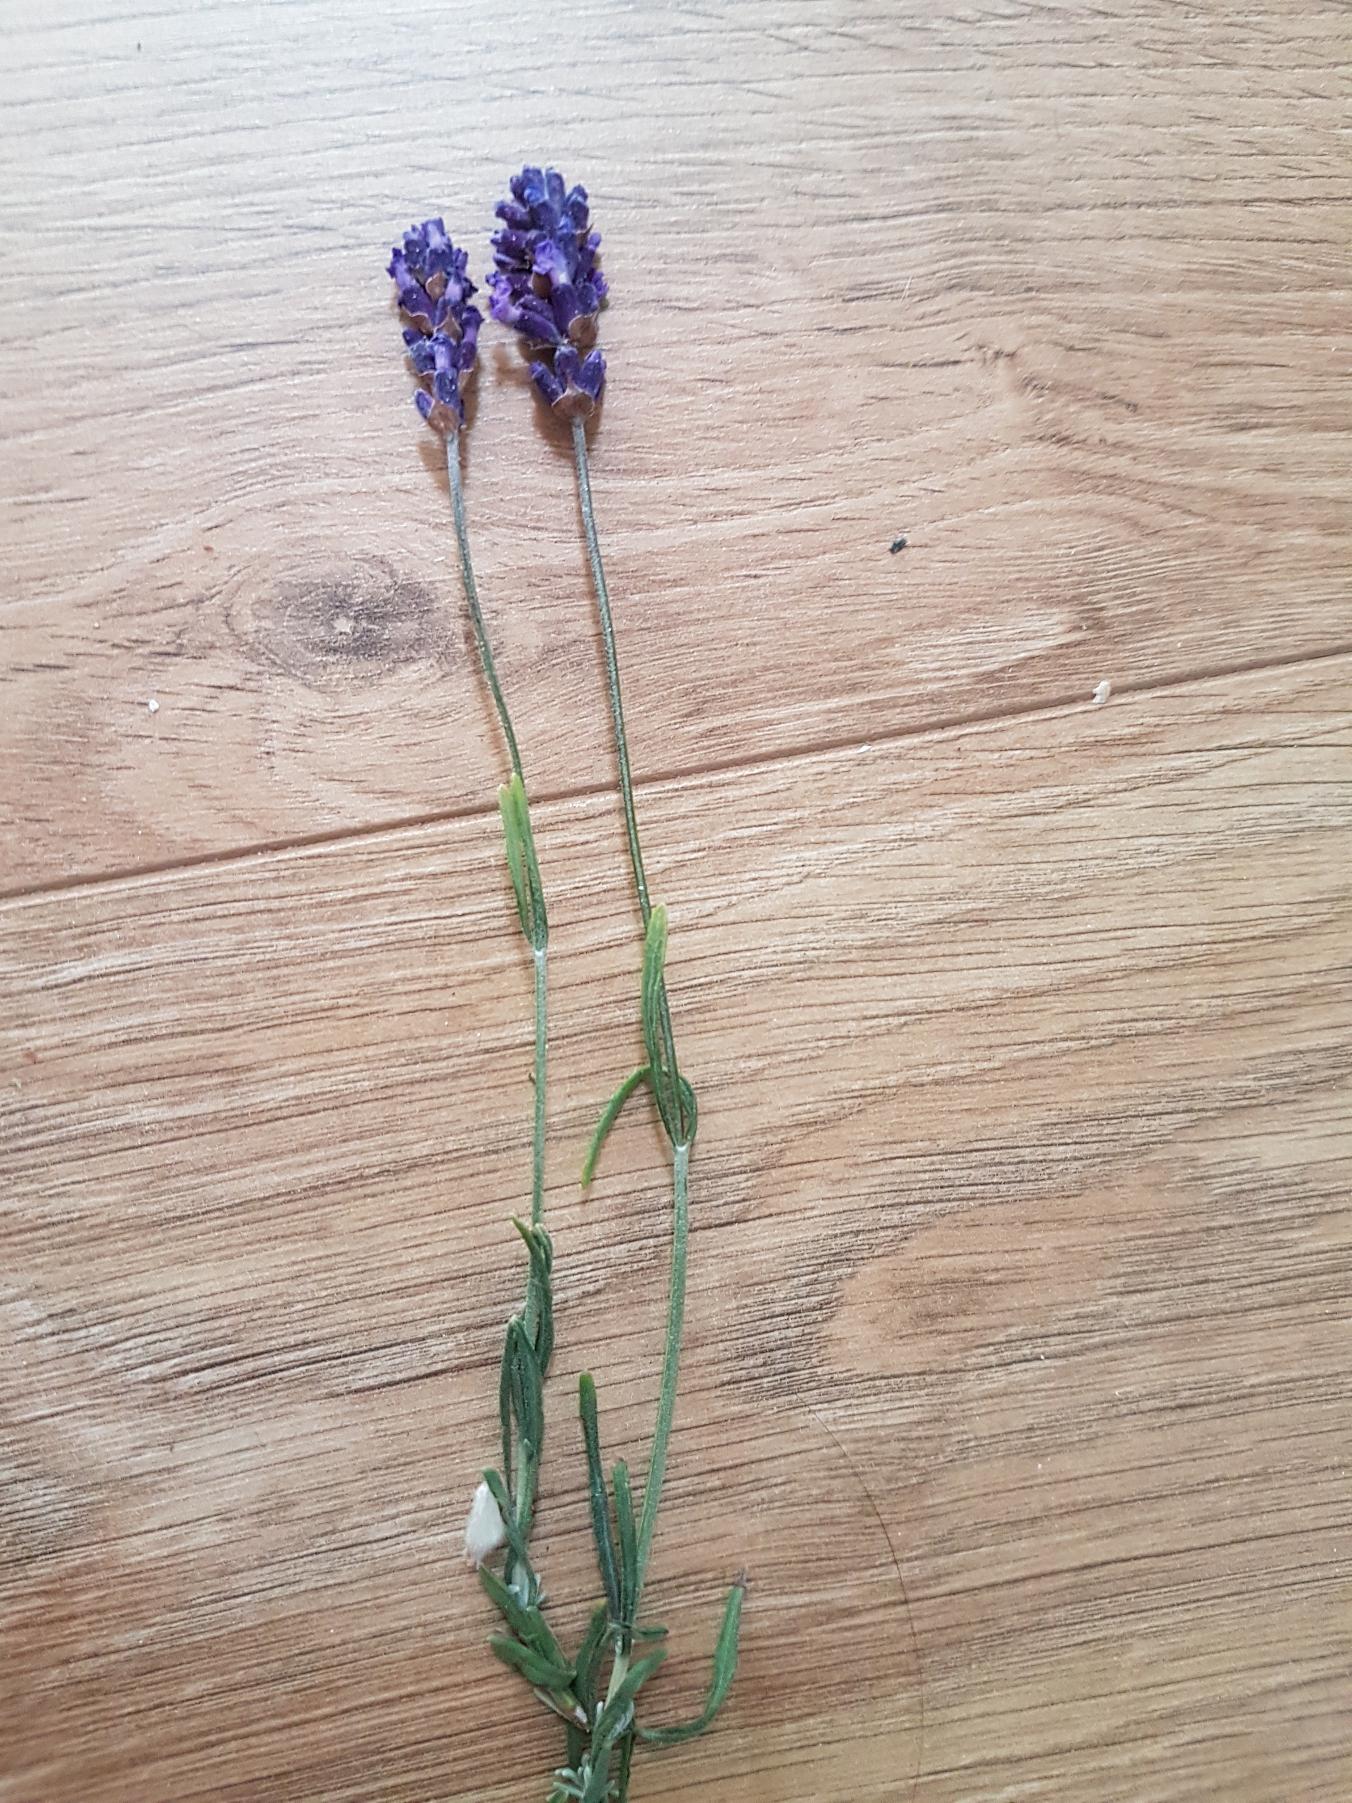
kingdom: Plantae
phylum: Tracheophyta
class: Magnoliopsida
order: Lamiales
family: Lamiaceae
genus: Lavandula
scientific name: Lavandula angustifolia
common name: Ægte lavendel
